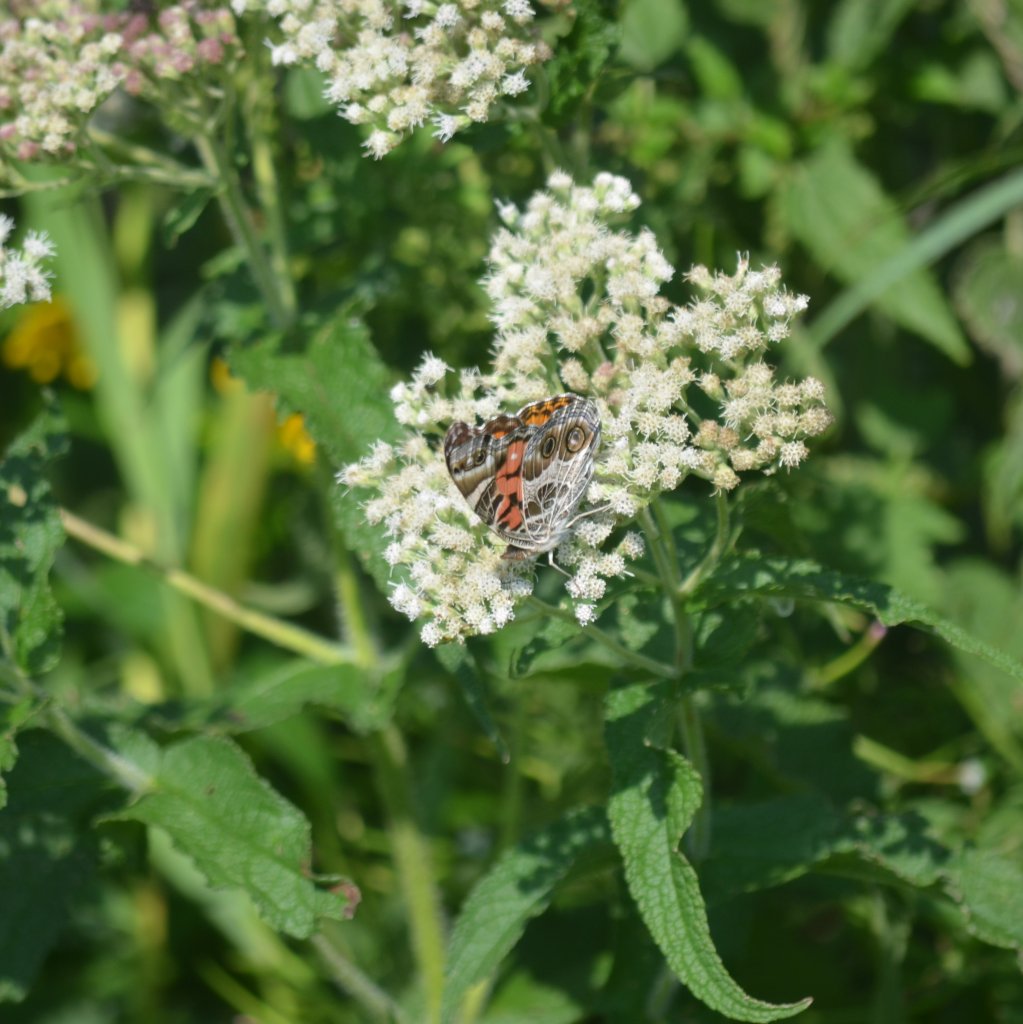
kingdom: Animalia
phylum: Arthropoda
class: Insecta
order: Lepidoptera
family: Nymphalidae
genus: Vanessa
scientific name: Vanessa virginiensis
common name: American Lady
